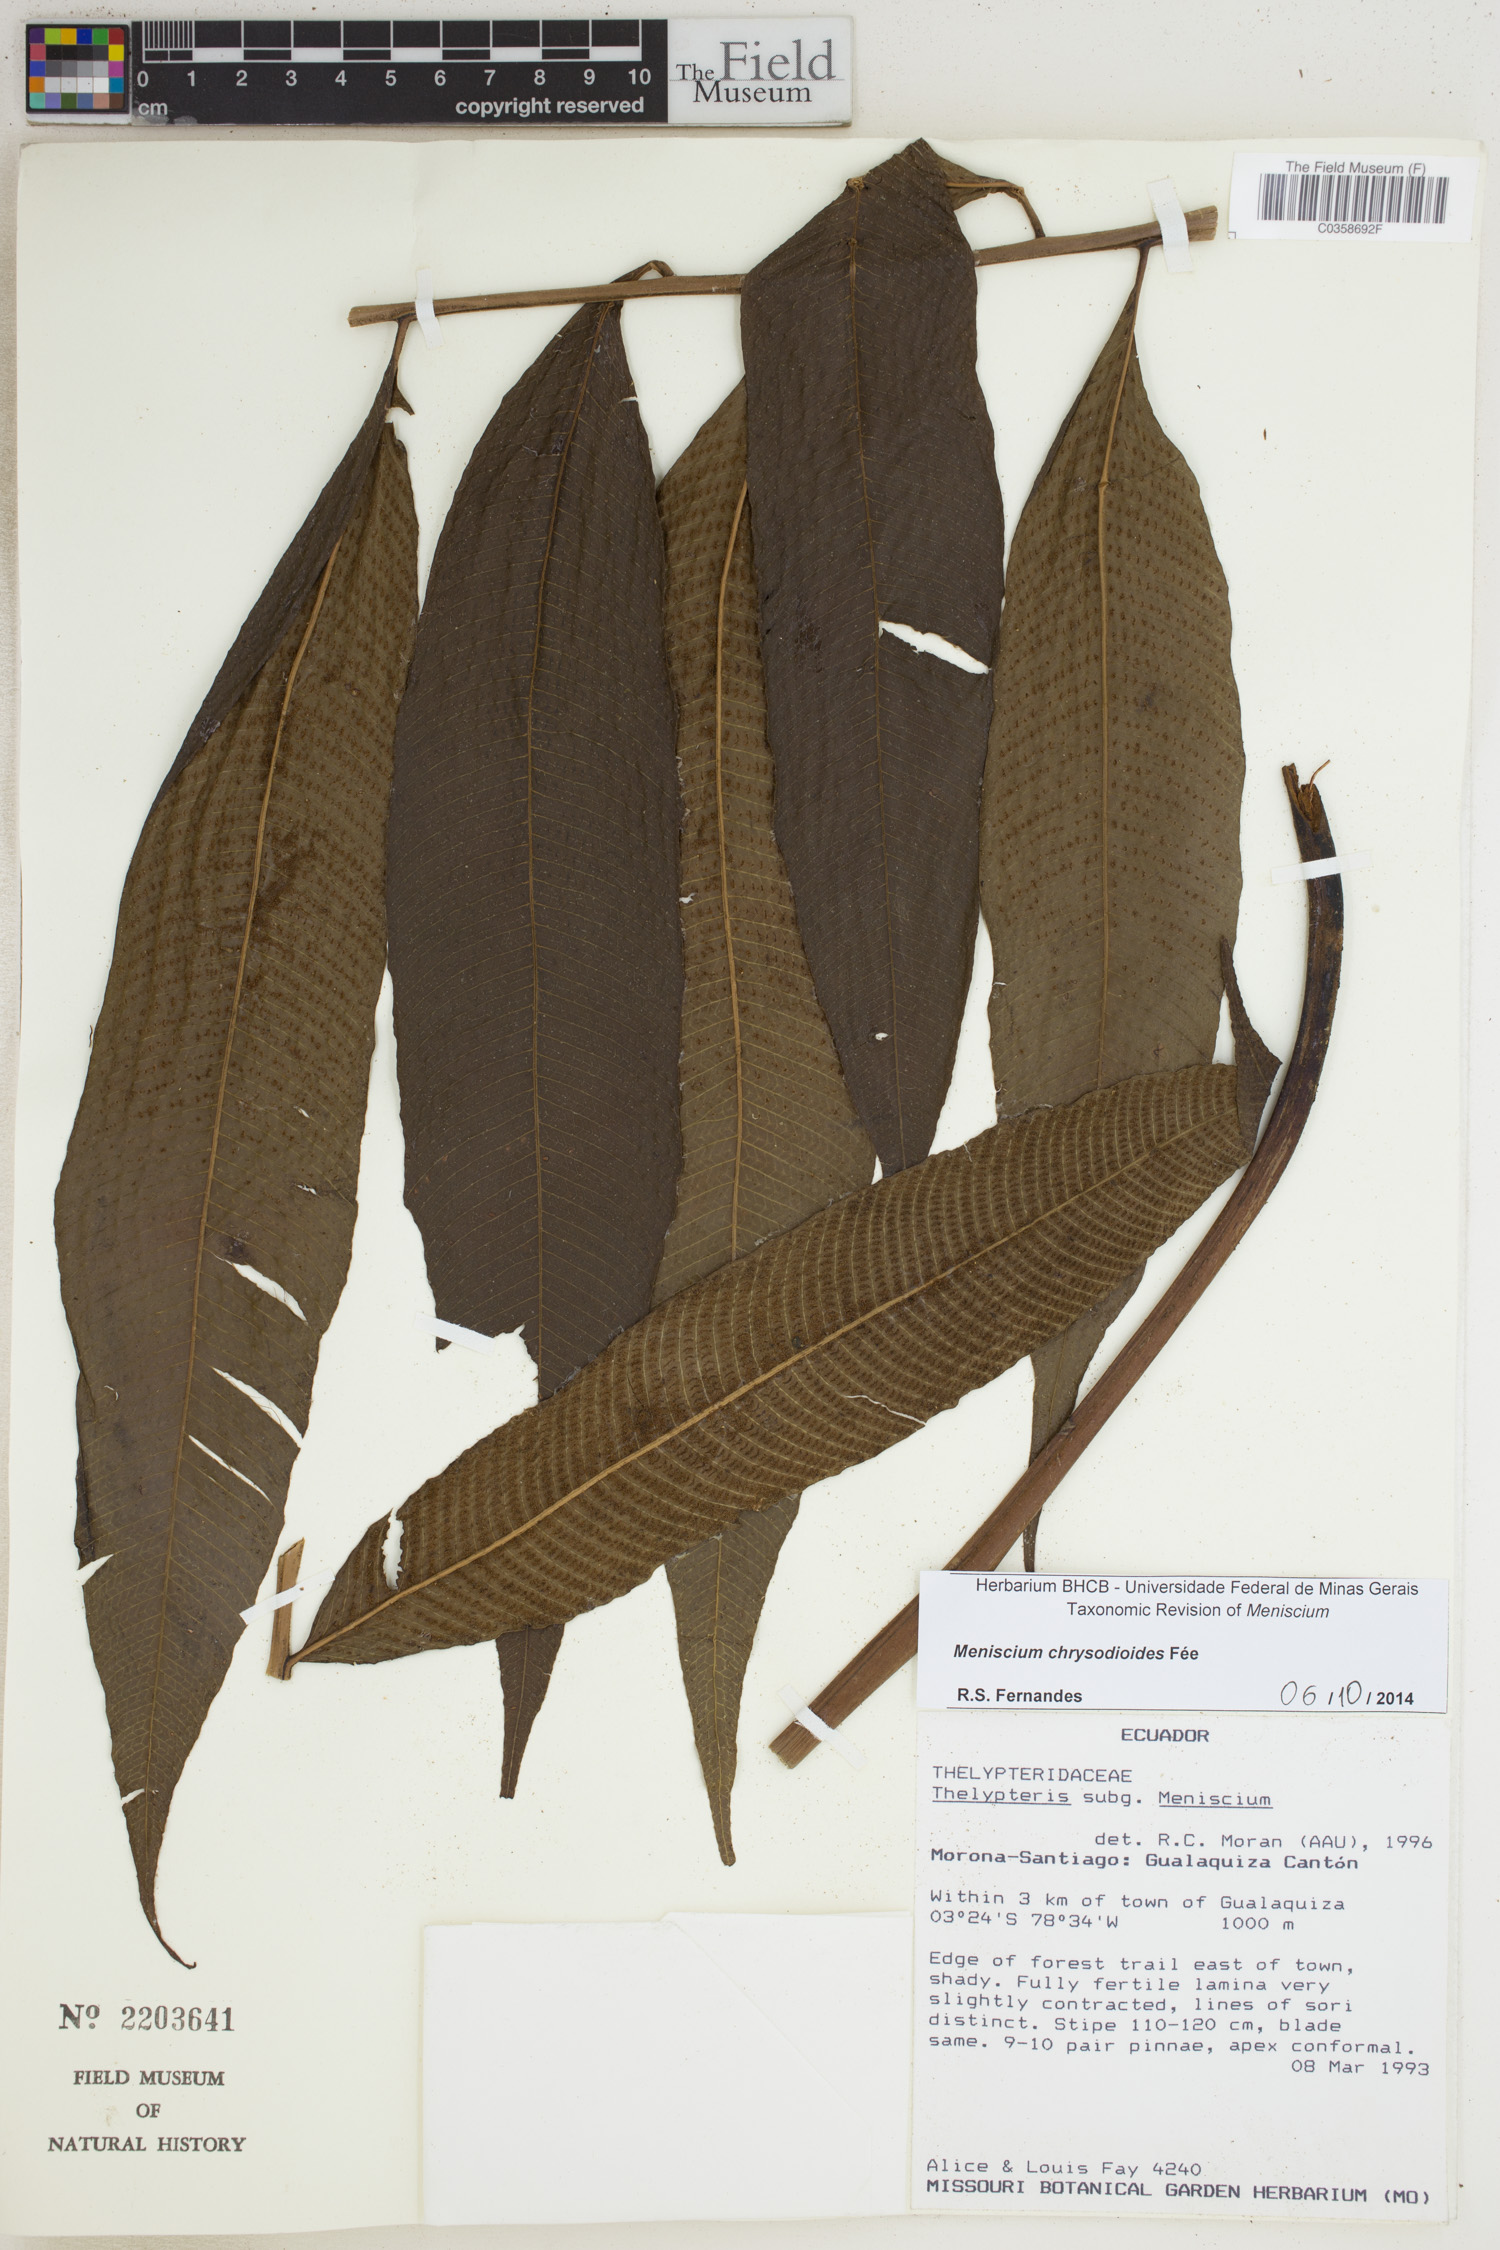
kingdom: Plantae
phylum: Tracheophyta
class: Polypodiopsida
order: Polypodiales
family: Thelypteridaceae
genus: Meniscium
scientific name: Meniscium chrysodioides
